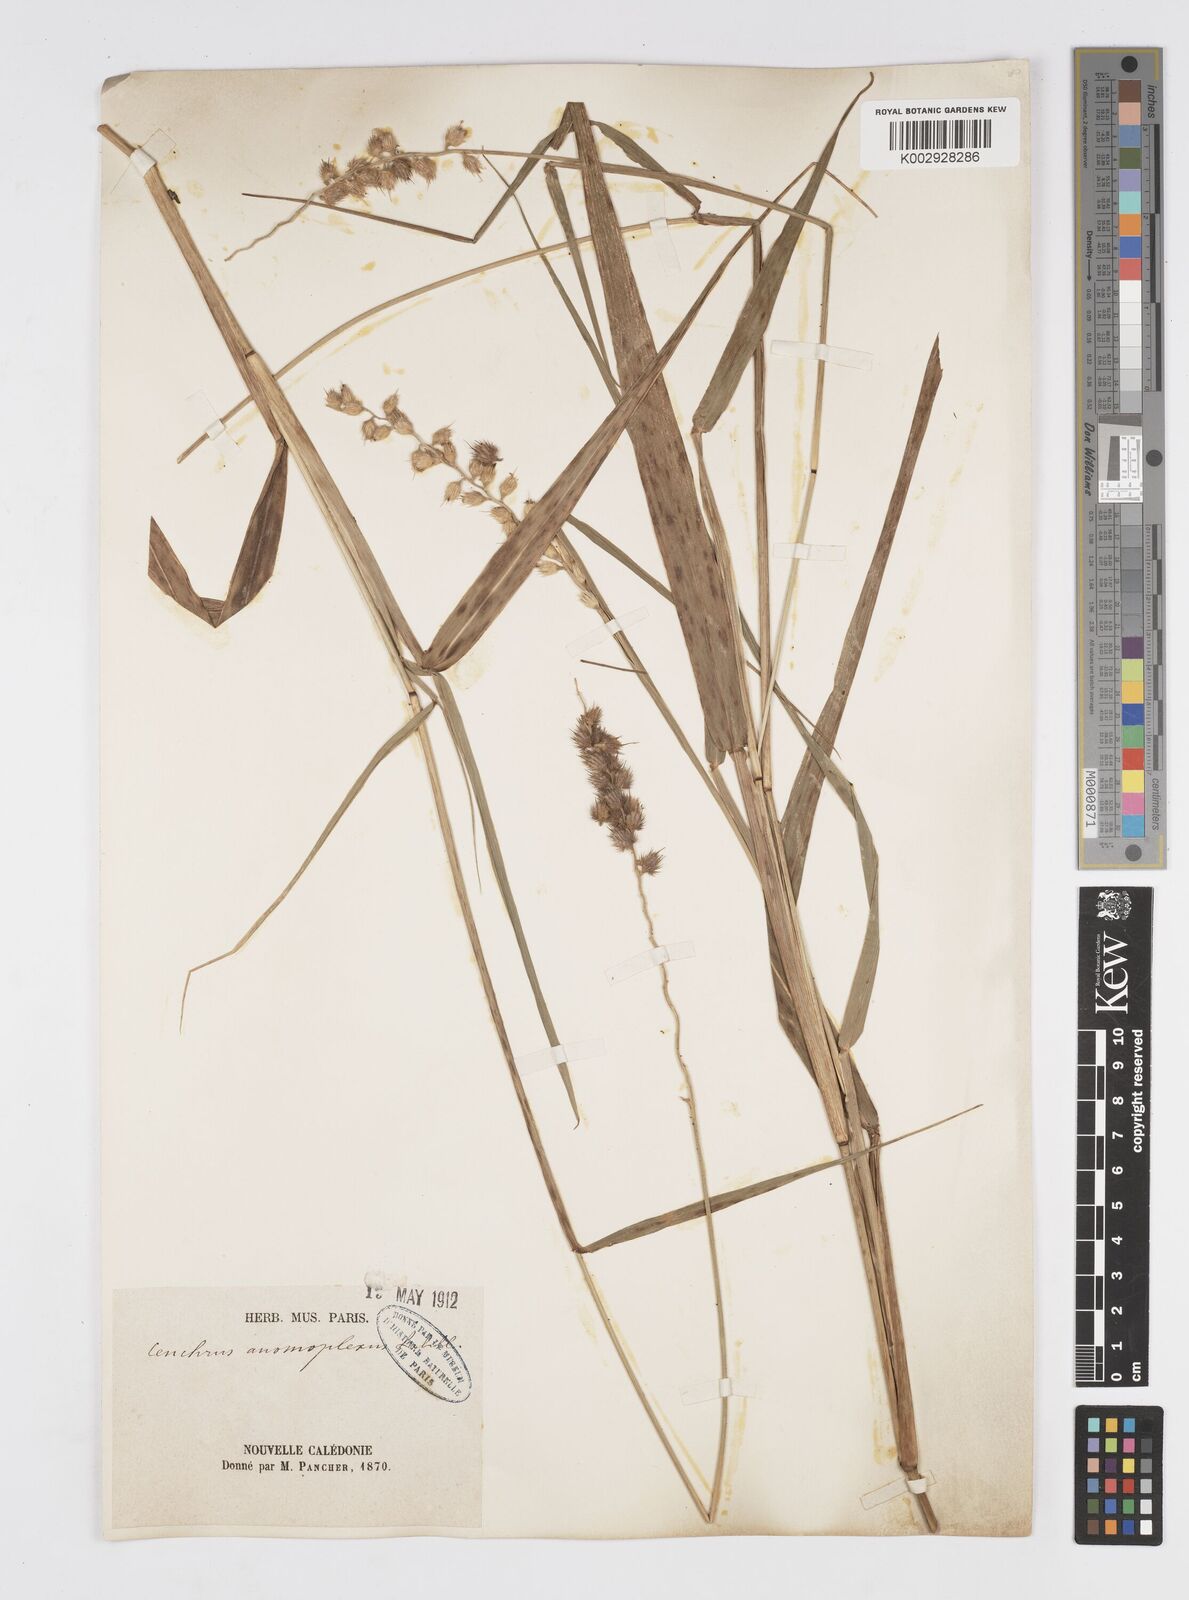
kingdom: Plantae
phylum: Tracheophyta
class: Liliopsida
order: Poales
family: Poaceae
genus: Cenchrus
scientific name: Cenchrus caliculatus
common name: Large bur grass
